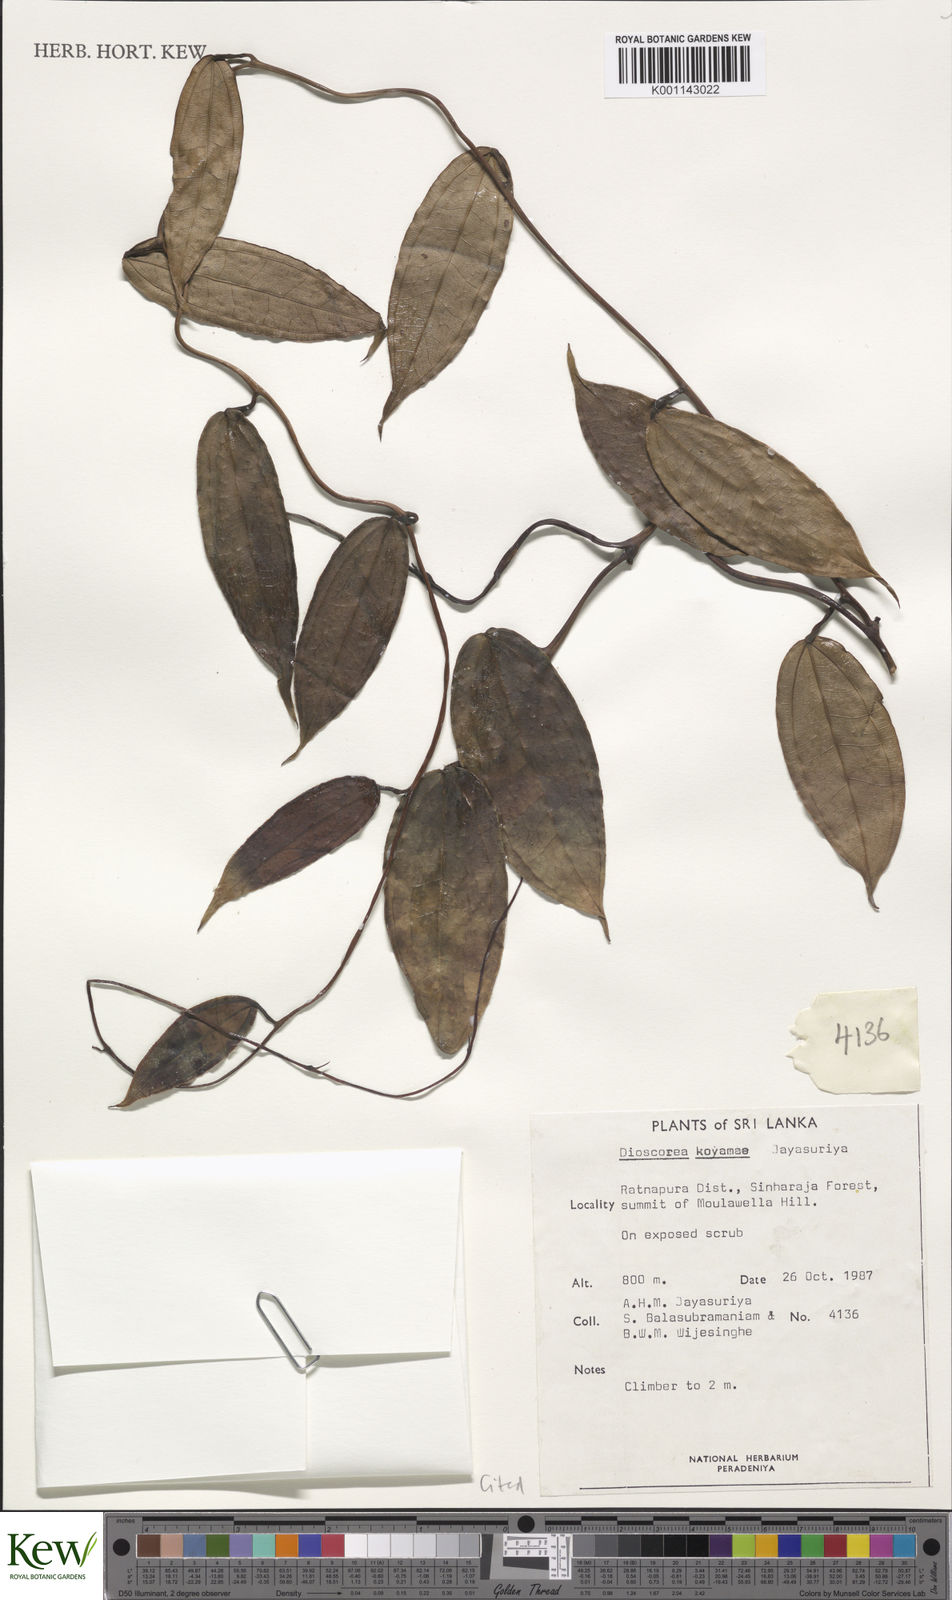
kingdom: Plantae
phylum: Tracheophyta
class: Liliopsida
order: Dioscoreales
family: Dioscoreaceae
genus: Dioscorea
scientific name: Dioscorea koyamae
